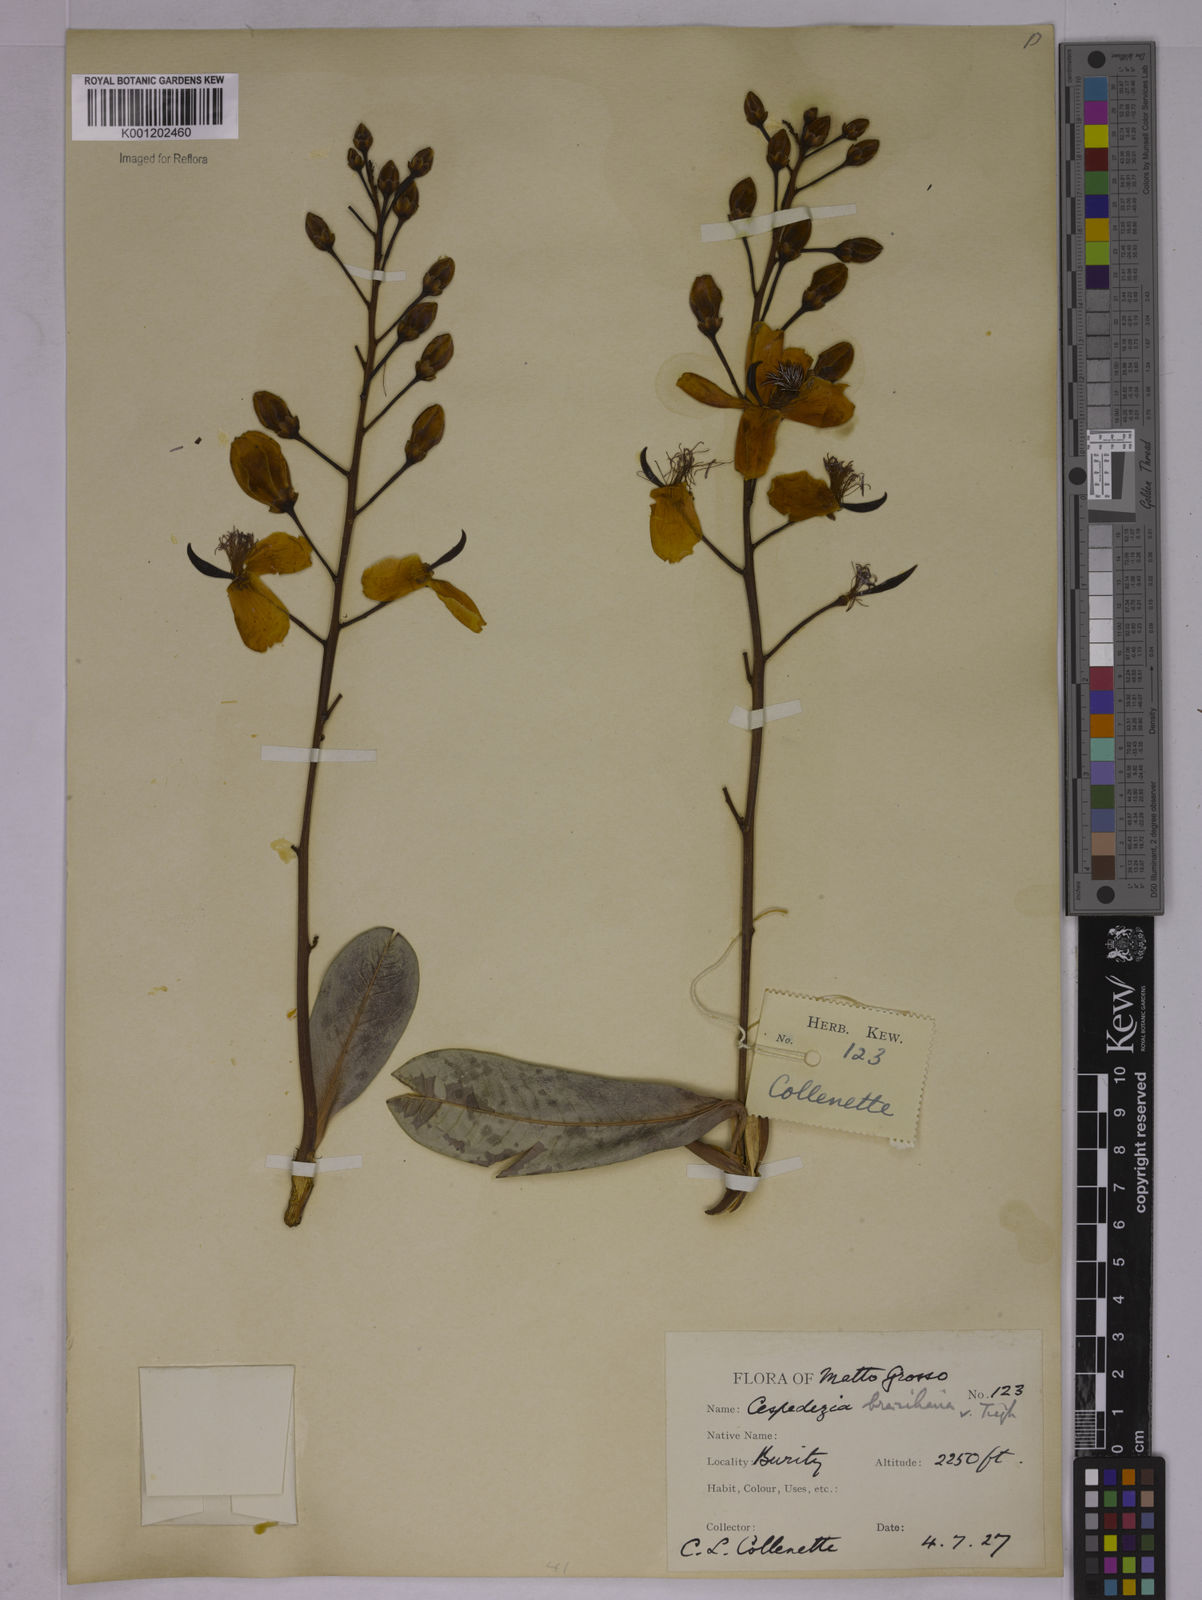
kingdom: Plantae
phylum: Tracheophyta
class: Magnoliopsida
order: Malpighiales
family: Ochnaceae
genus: Cespedesia
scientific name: Cespedesia spathulata
